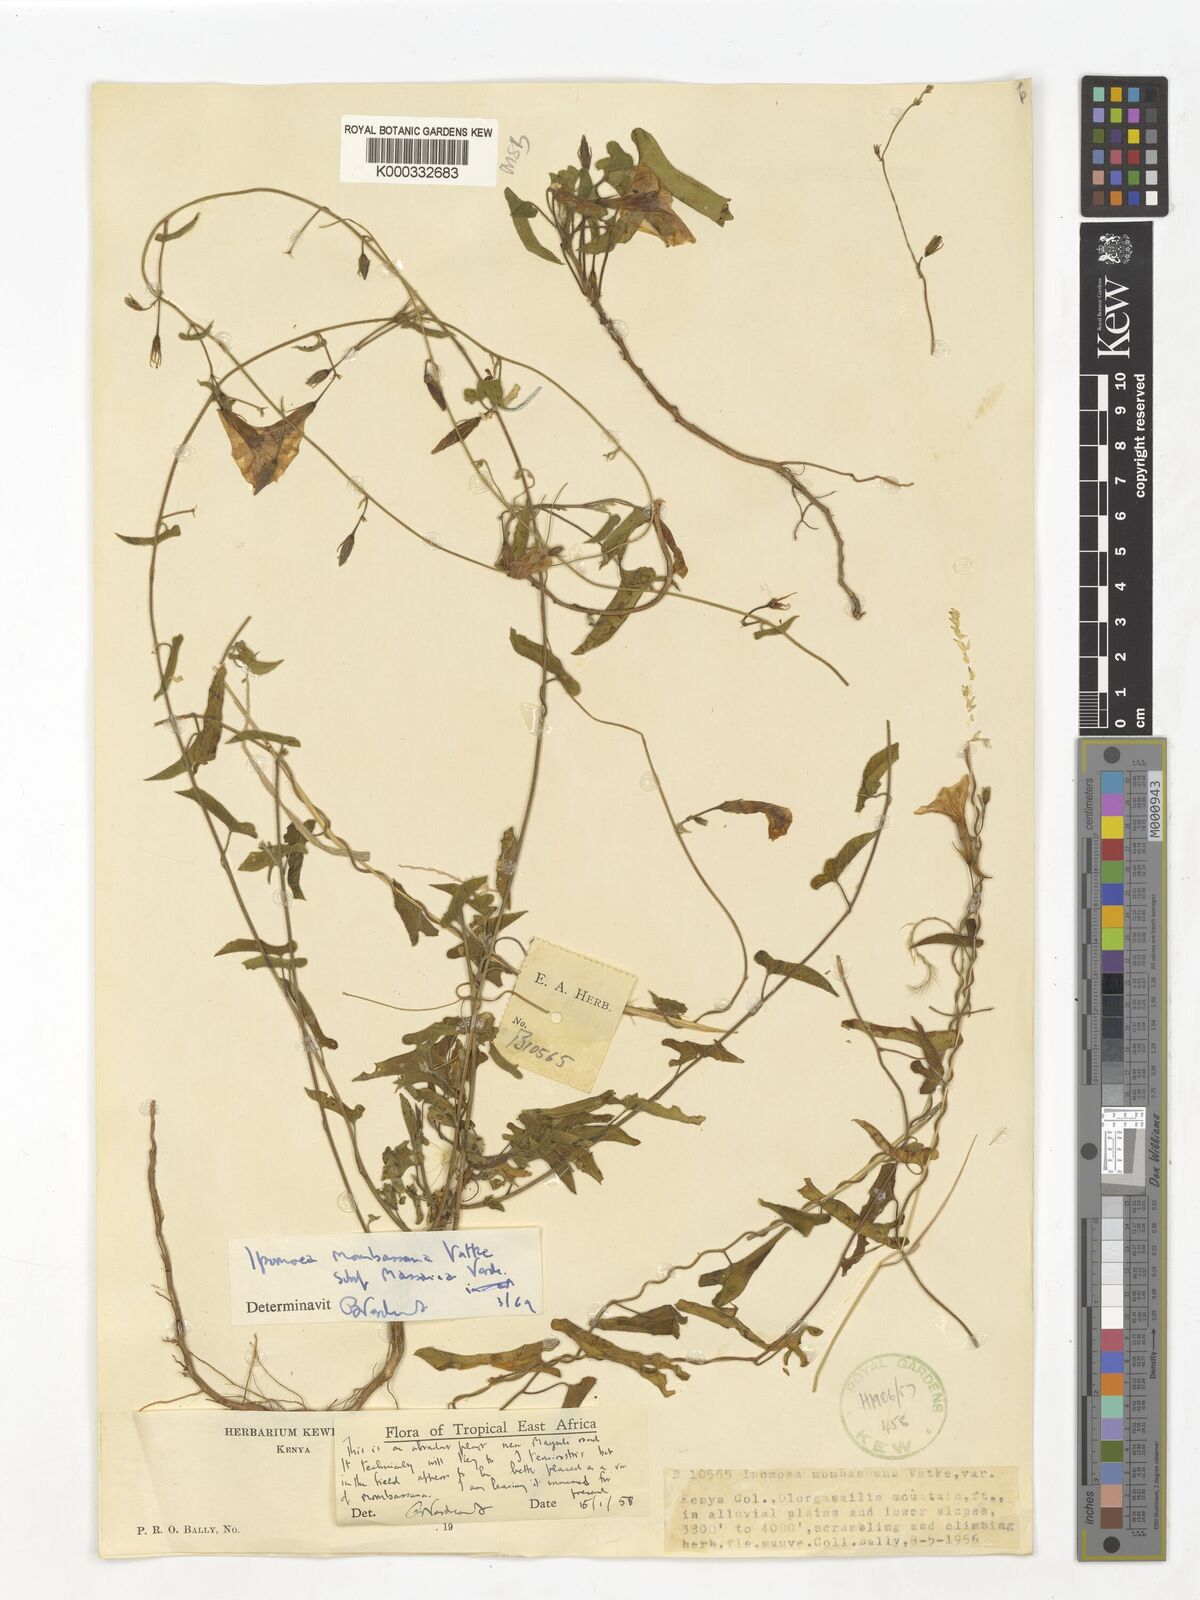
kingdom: Plantae
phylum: Tracheophyta
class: Magnoliopsida
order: Solanales
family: Convolvulaceae
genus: Ipomoea
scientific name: Ipomoea mombassana
